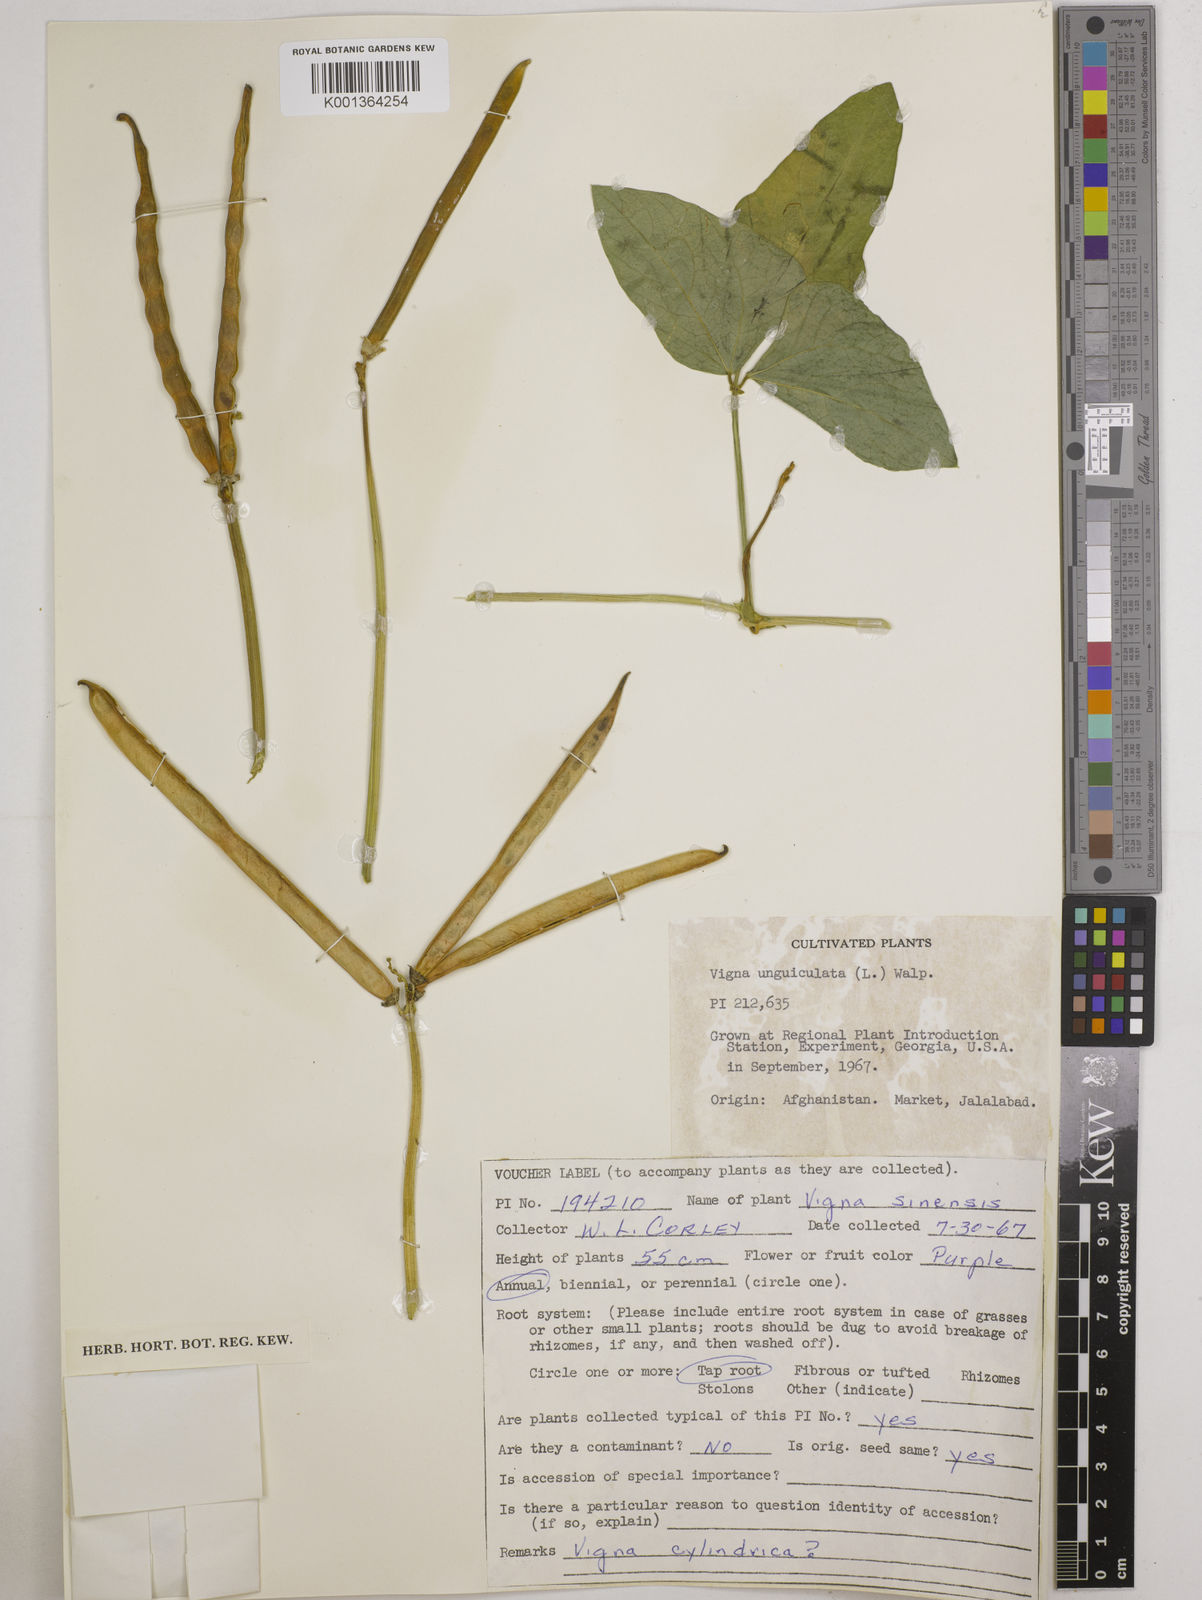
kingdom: Plantae
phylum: Tracheophyta
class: Magnoliopsida
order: Fabales
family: Fabaceae
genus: Vigna
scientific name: Vigna
